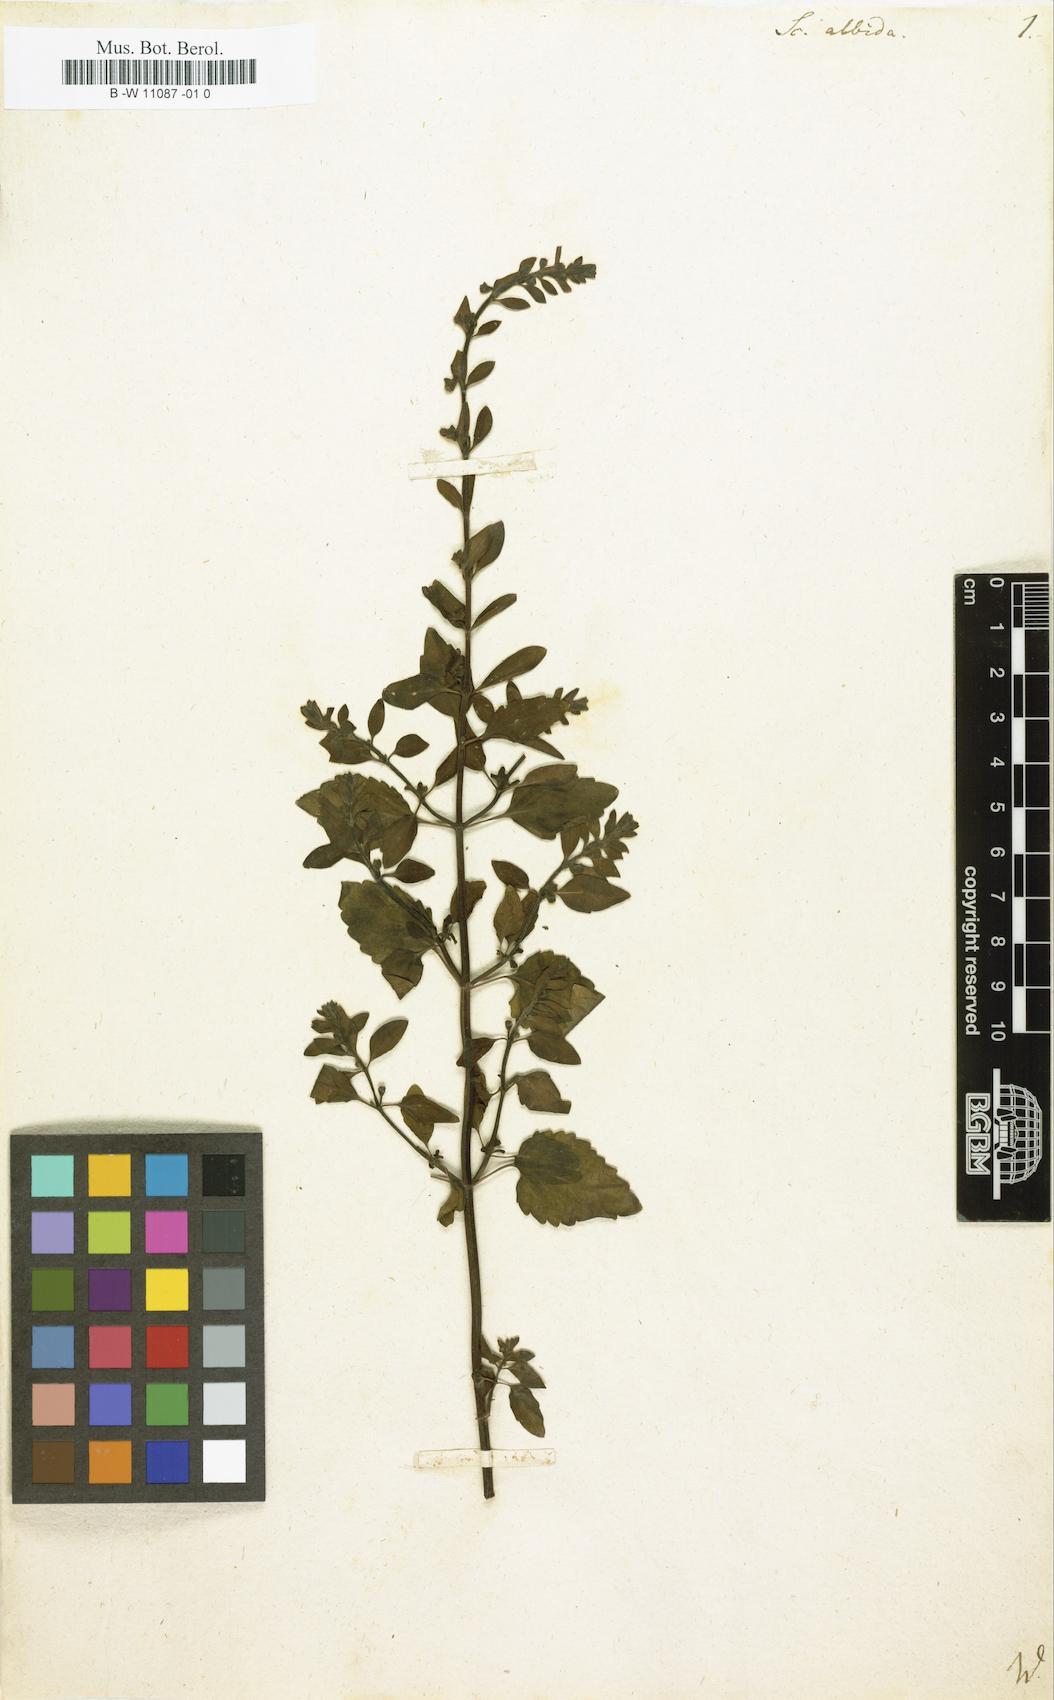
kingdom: Plantae
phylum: Tracheophyta
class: Magnoliopsida
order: Lamiales
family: Lamiaceae
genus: Scutellaria
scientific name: Scutellaria albida
